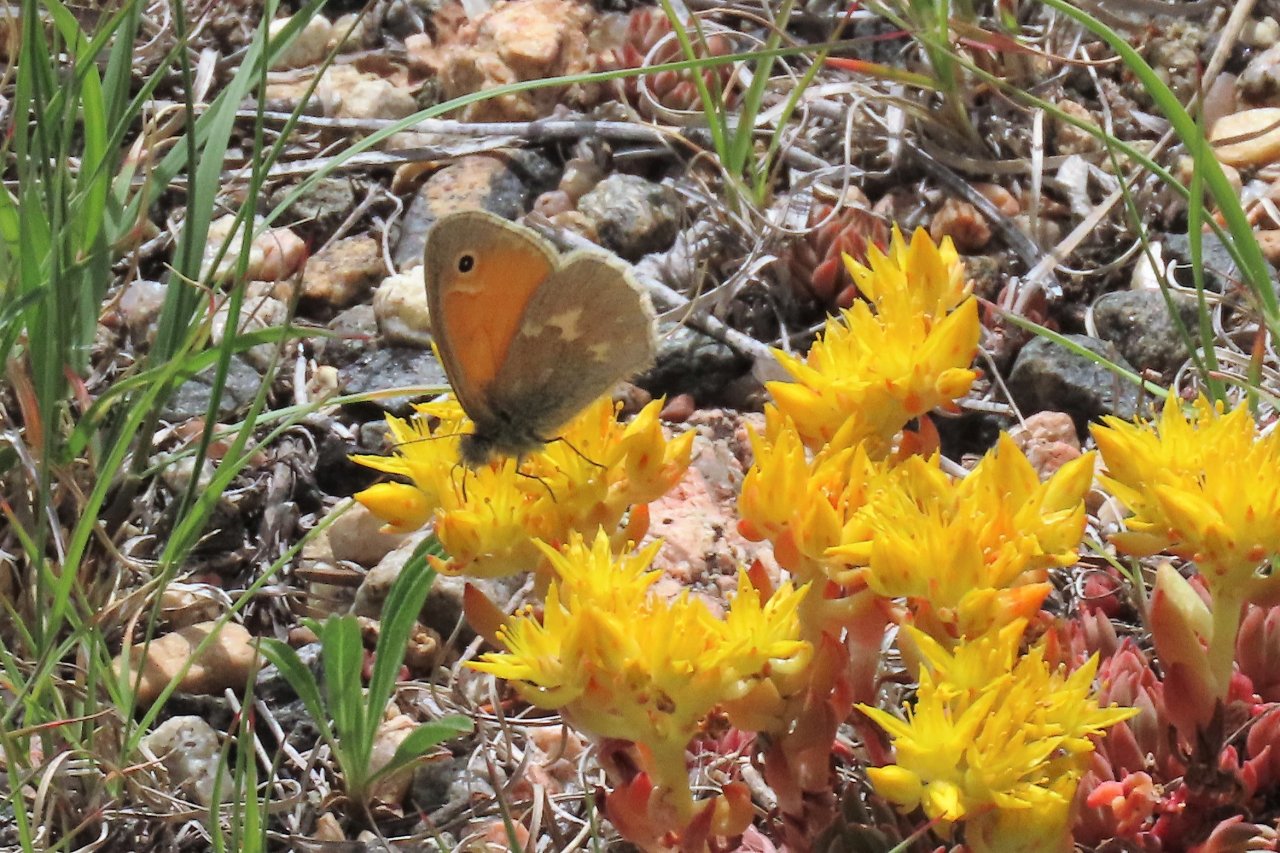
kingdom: Animalia
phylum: Arthropoda
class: Insecta
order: Lepidoptera
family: Nymphalidae
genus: Coenonympha
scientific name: Coenonympha tullia
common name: Large Heath
